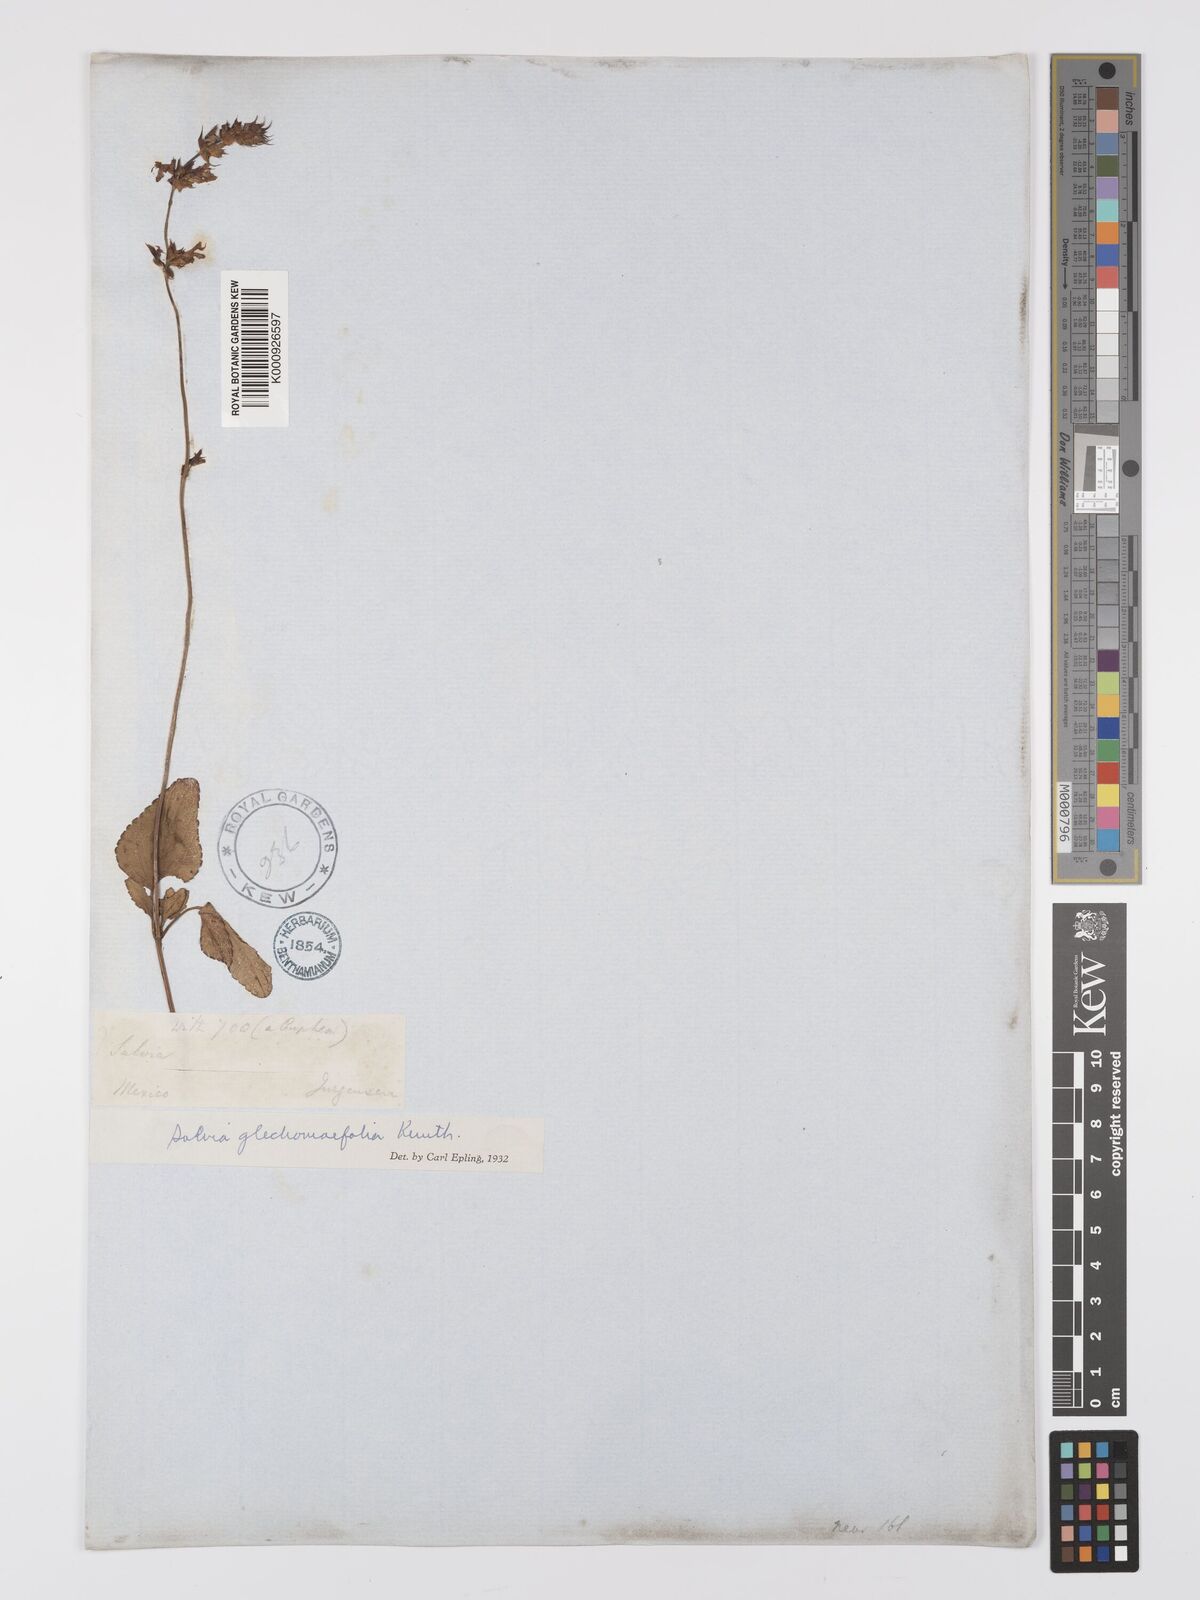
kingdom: Plantae
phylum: Tracheophyta
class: Magnoliopsida
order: Lamiales
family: Lamiaceae
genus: Salvia
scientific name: Salvia prunelloides
